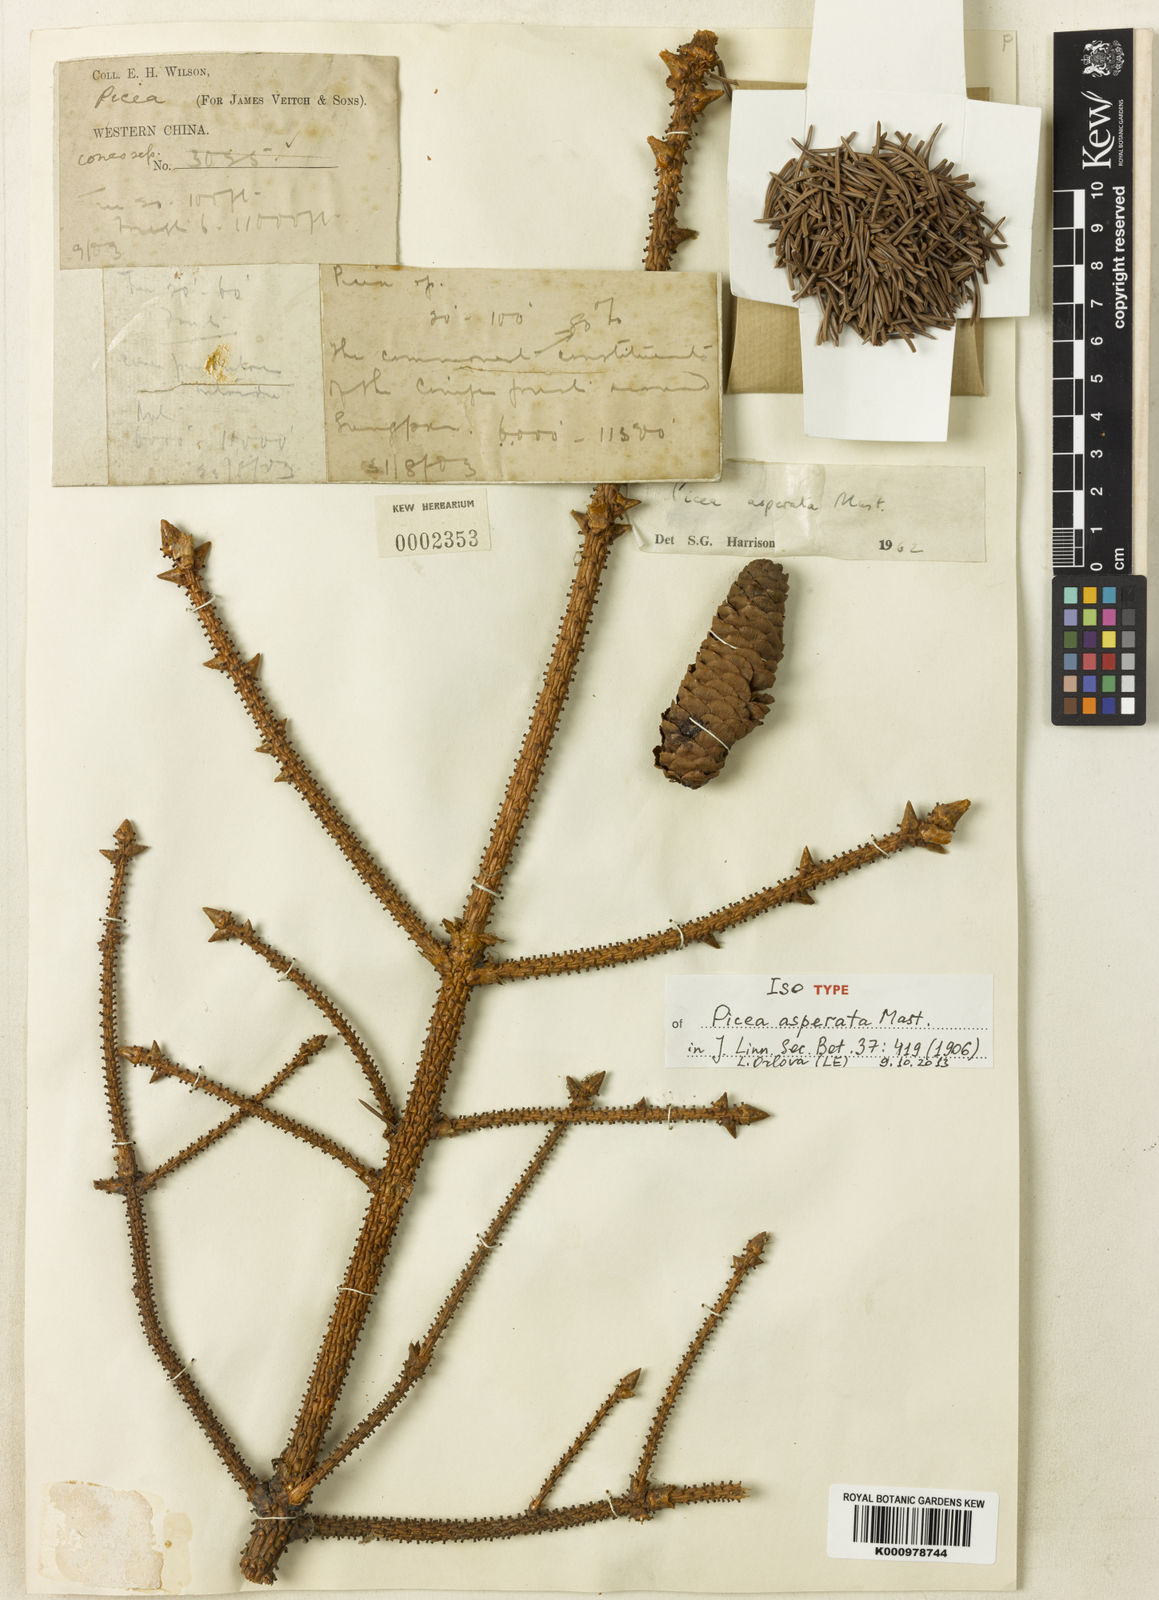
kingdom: Plantae
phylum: Tracheophyta
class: Pinopsida
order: Pinales
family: Pinaceae
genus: Picea
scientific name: Picea asperata
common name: Dragon spruce
